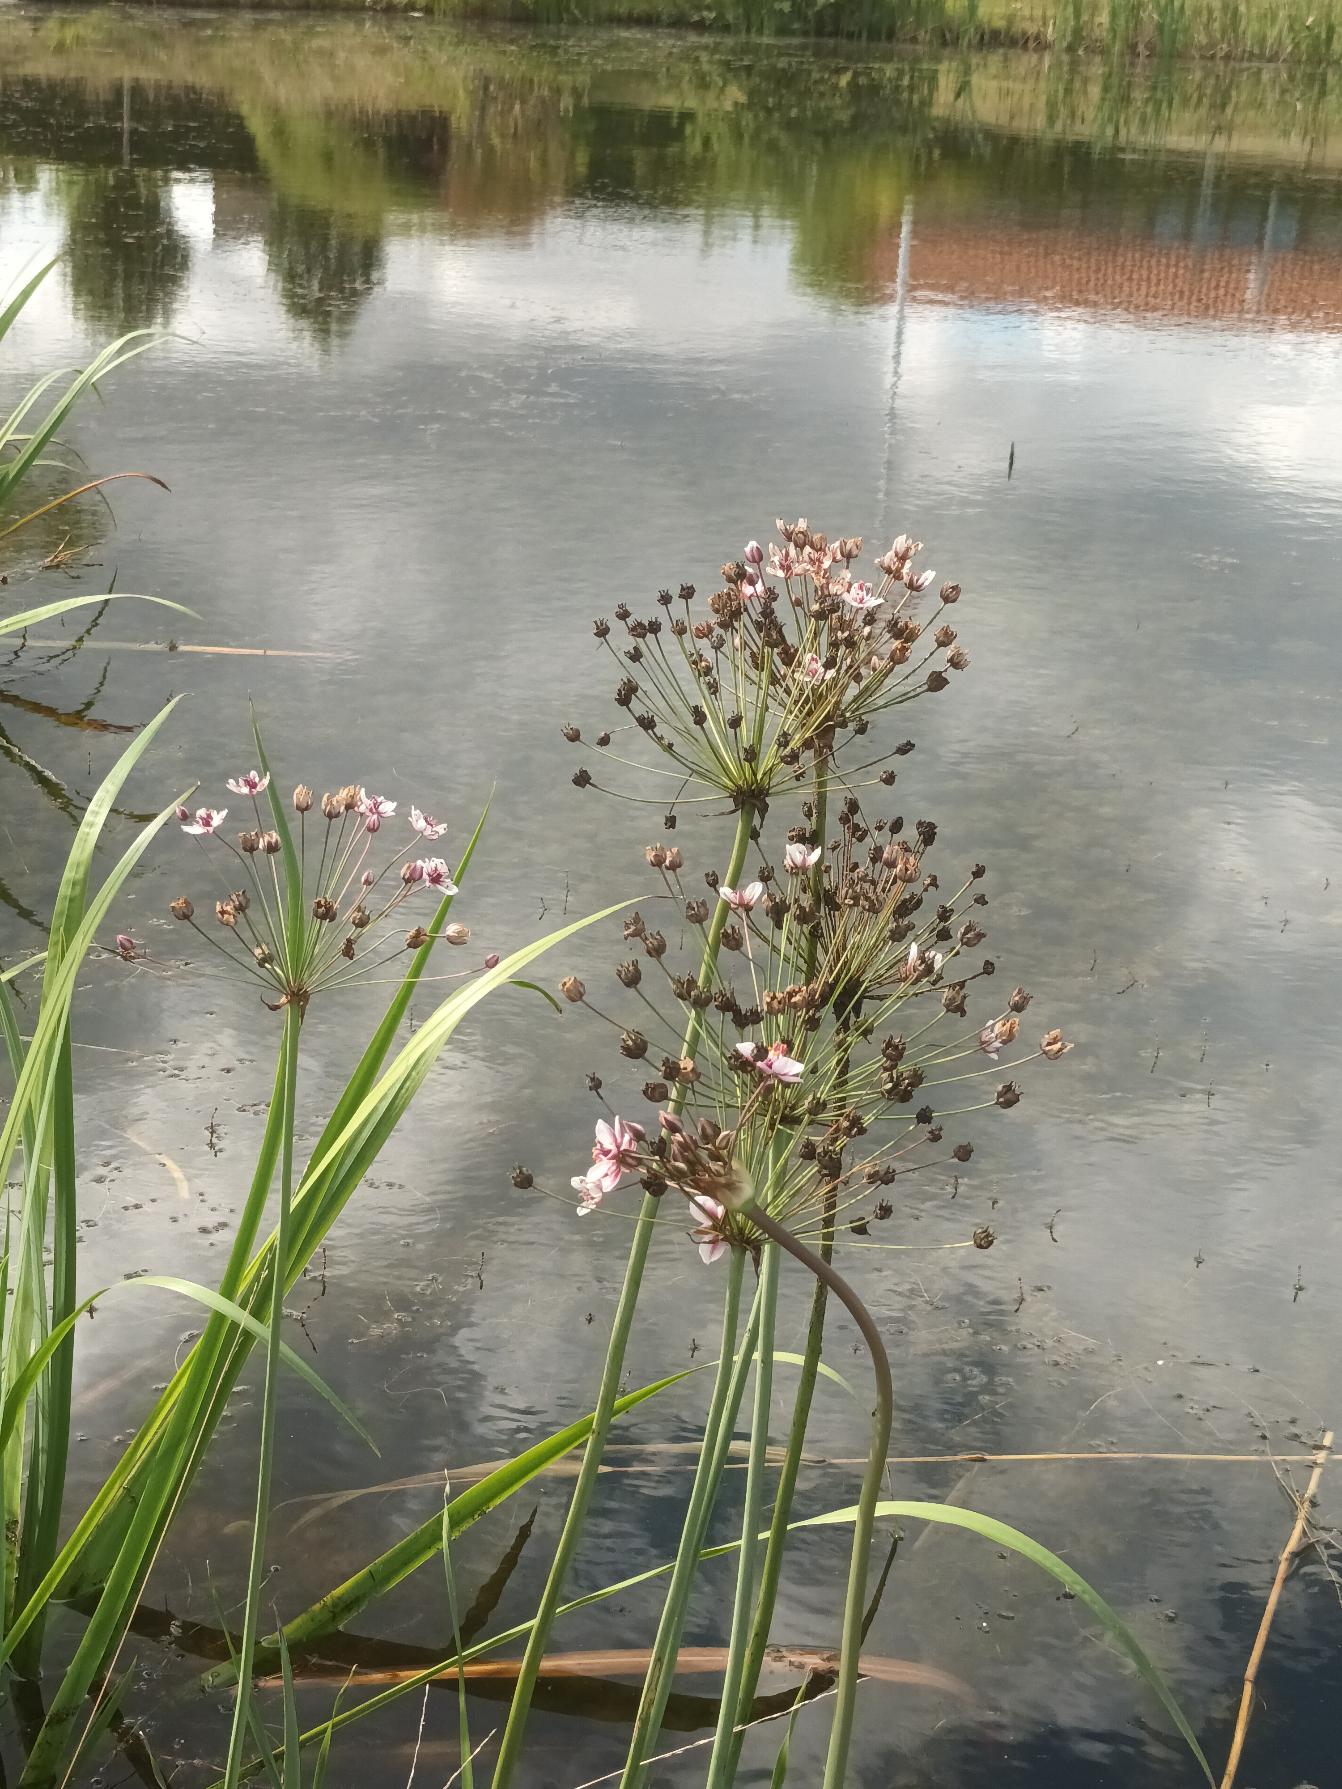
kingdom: Plantae
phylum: Tracheophyta
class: Liliopsida
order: Alismatales
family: Butomaceae
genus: Butomus
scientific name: Butomus umbellatus
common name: Brudelys
